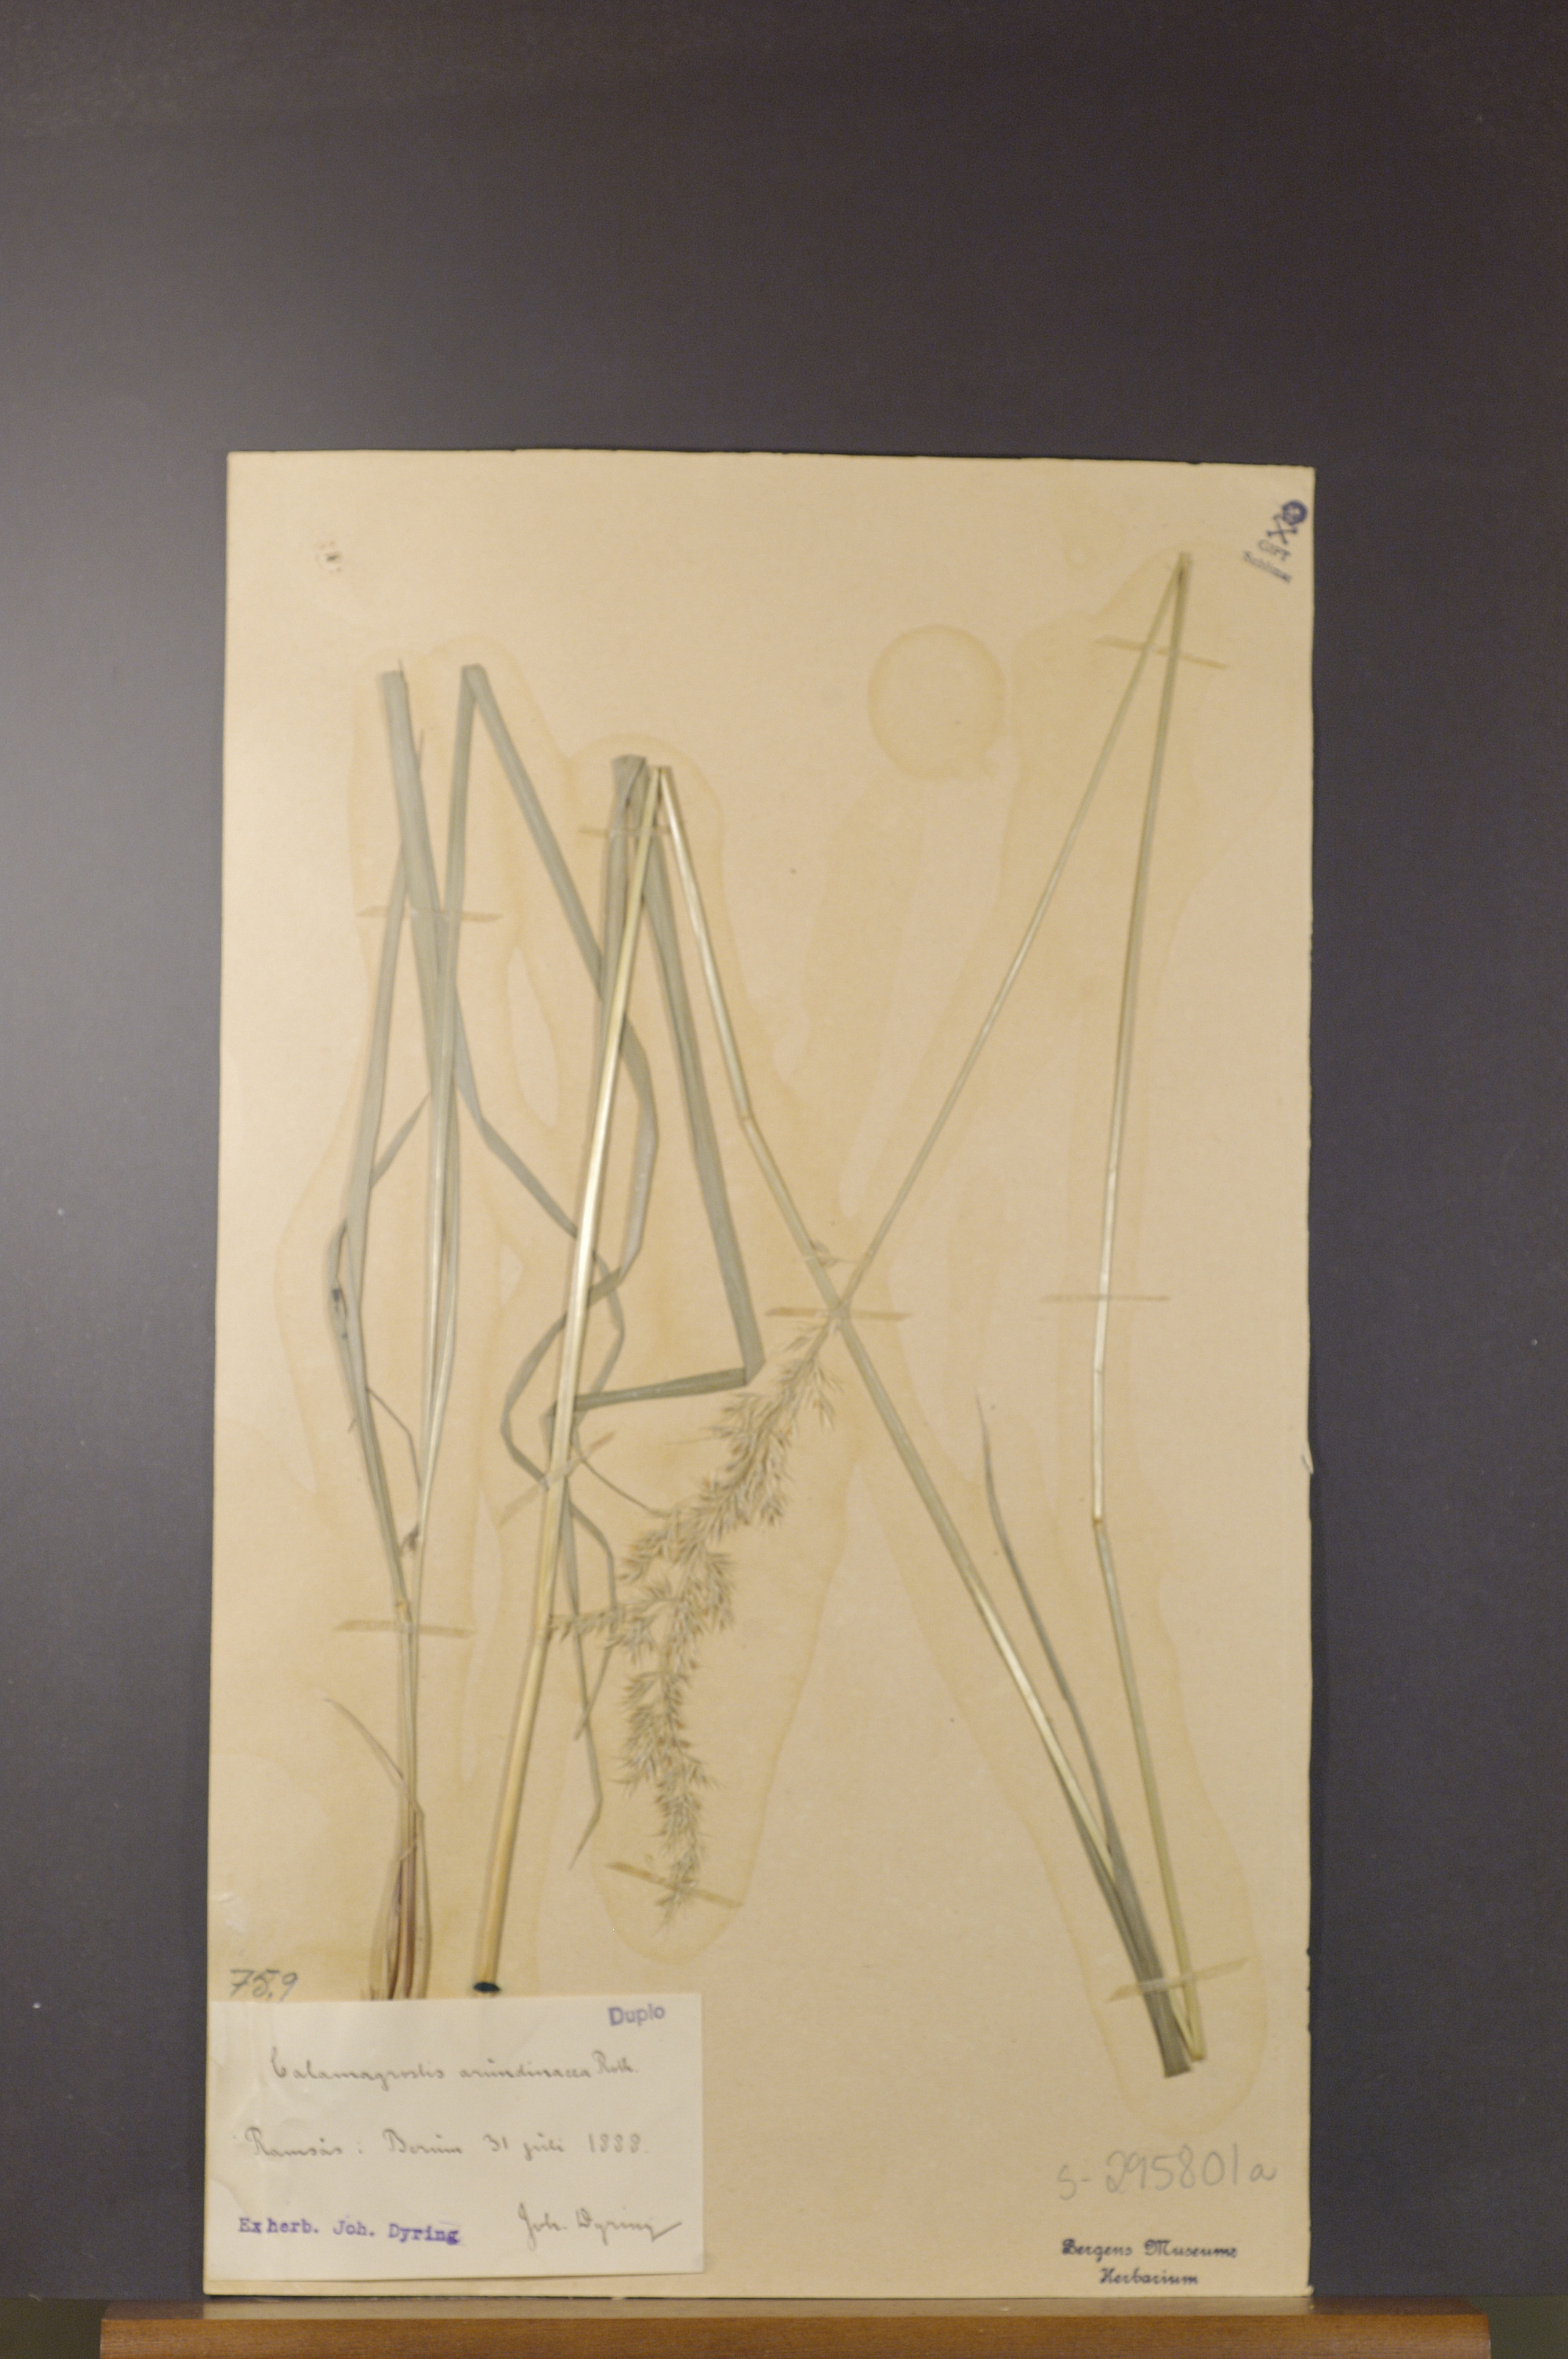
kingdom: Plantae
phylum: Tracheophyta
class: Liliopsida
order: Poales
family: Poaceae
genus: Calamagrostis
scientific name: Calamagrostis arundinacea
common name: Metskastik
